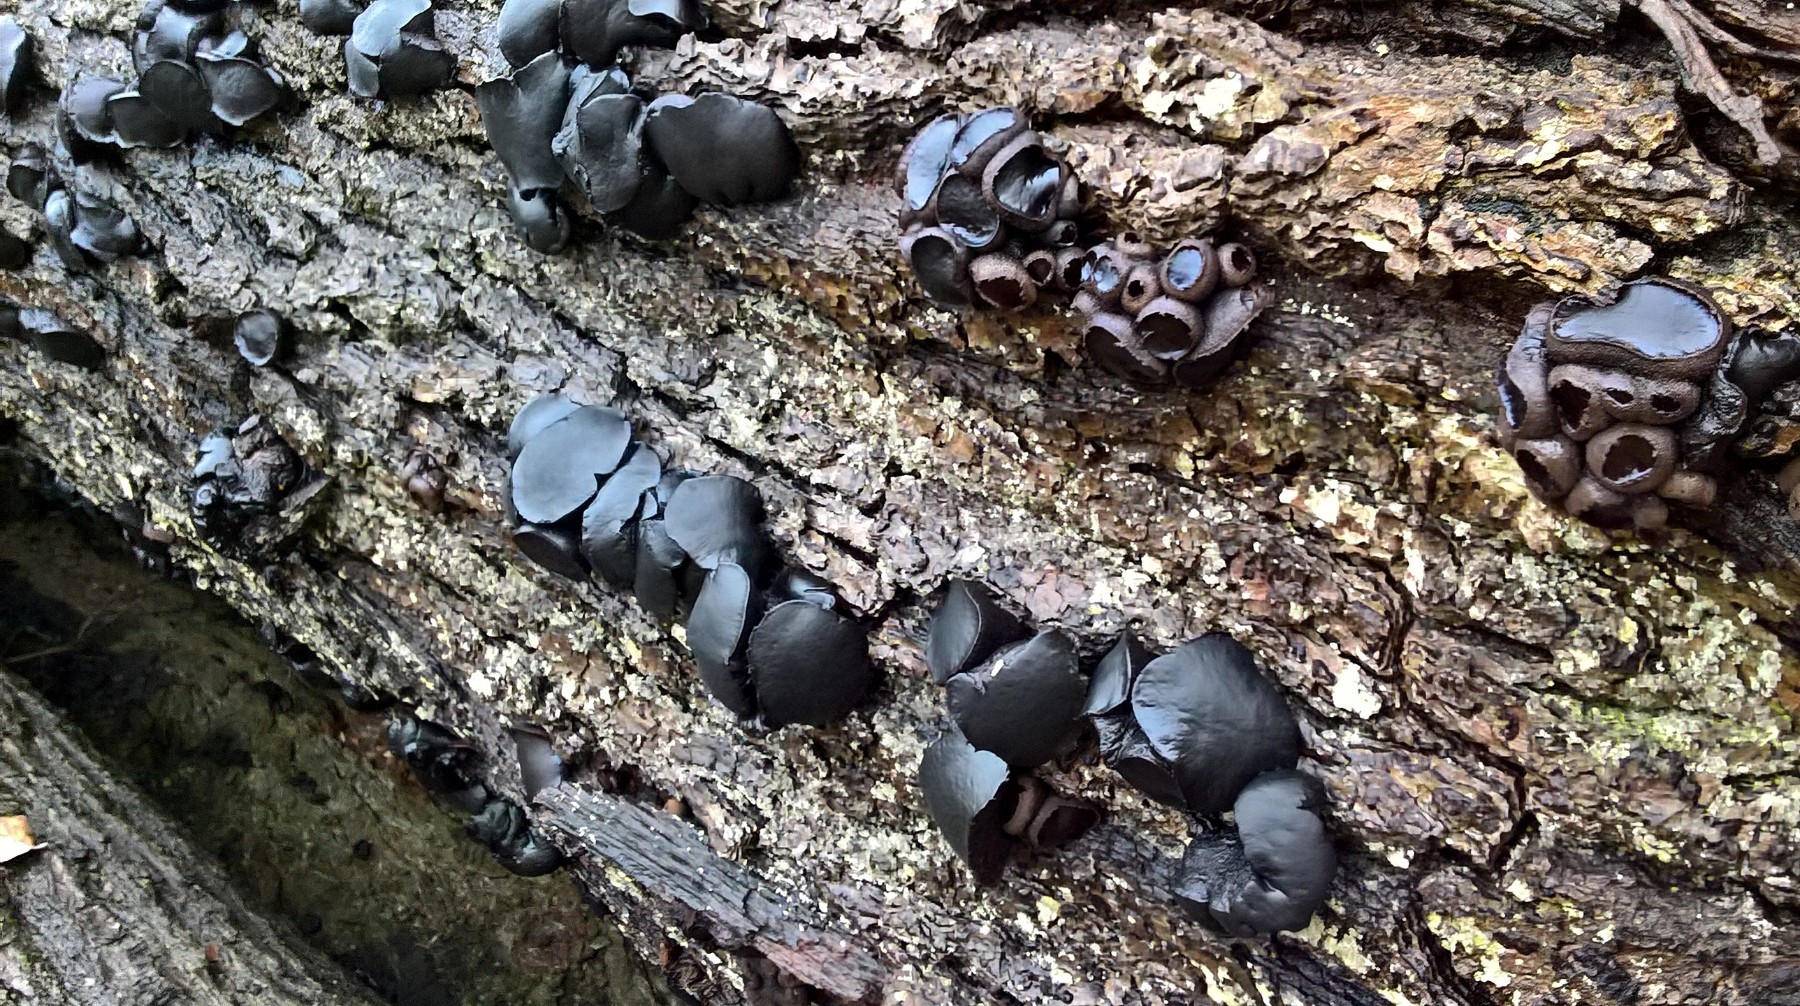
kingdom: Fungi
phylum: Ascomycota
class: Leotiomycetes
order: Phacidiales
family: Phacidiaceae
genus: Bulgaria
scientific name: Bulgaria inquinans
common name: afsmittende topsvamp
